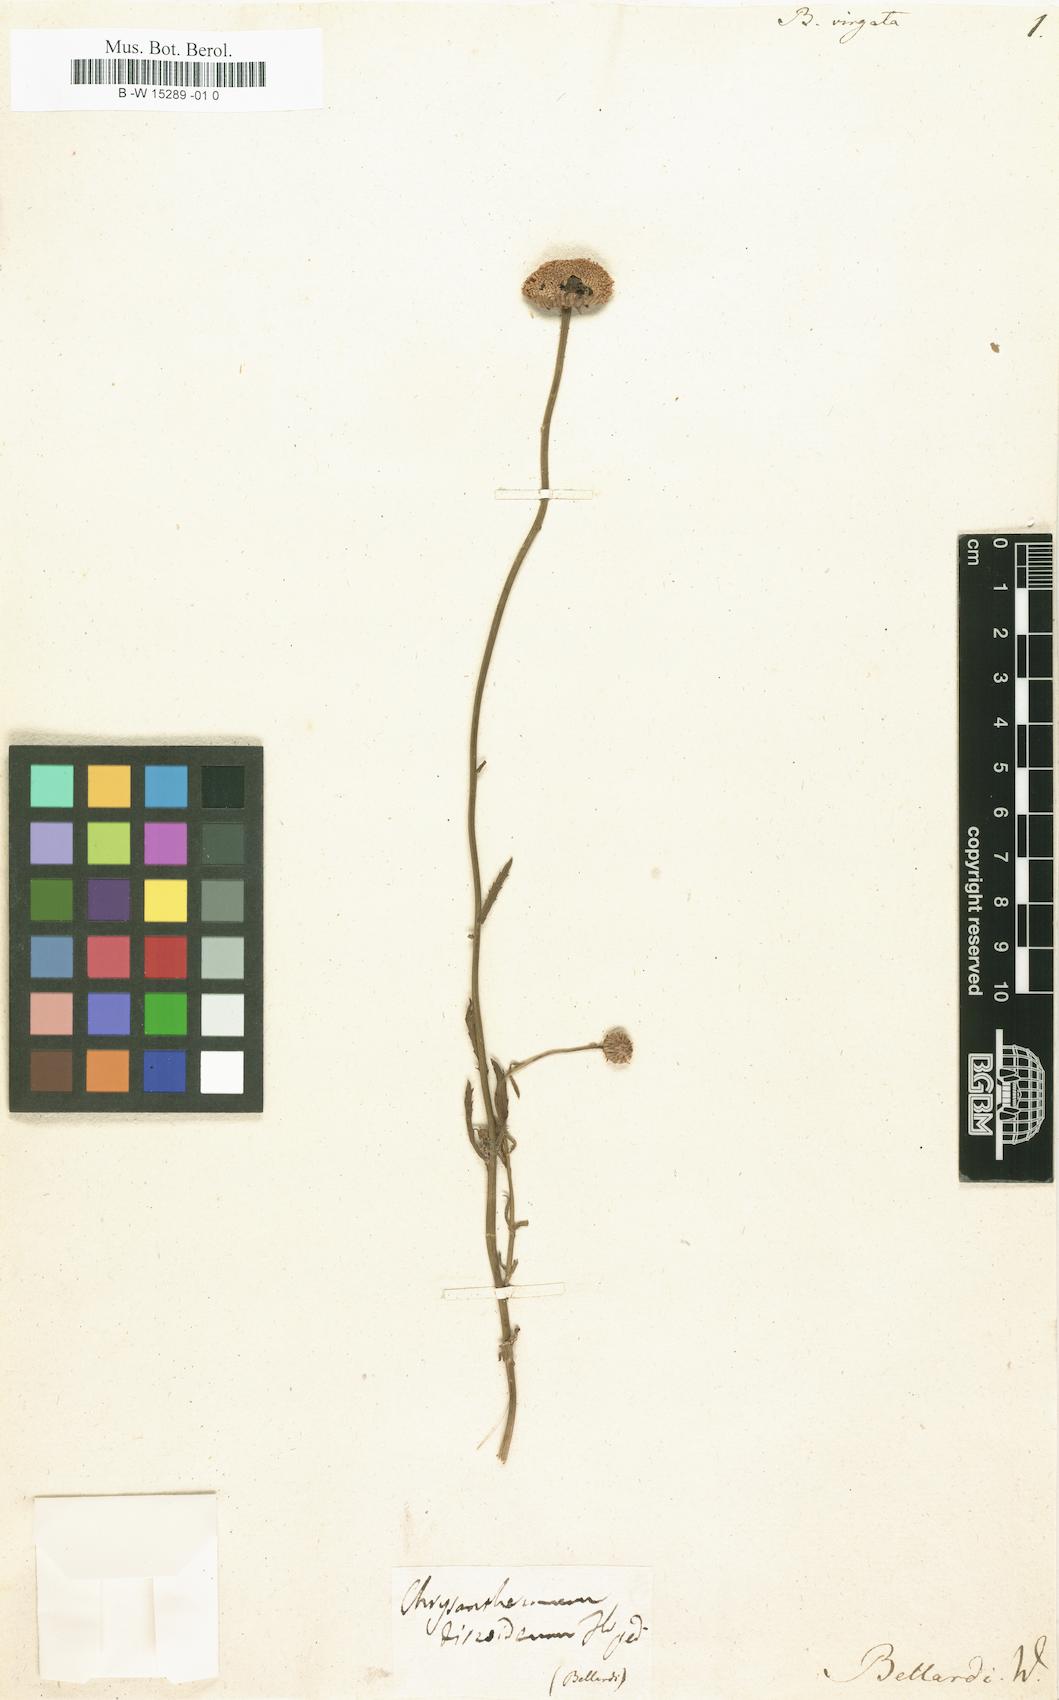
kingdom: Plantae
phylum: Tracheophyta
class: Magnoliopsida
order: Asterales
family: Asteraceae
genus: Plagius
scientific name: Plagius grandis
